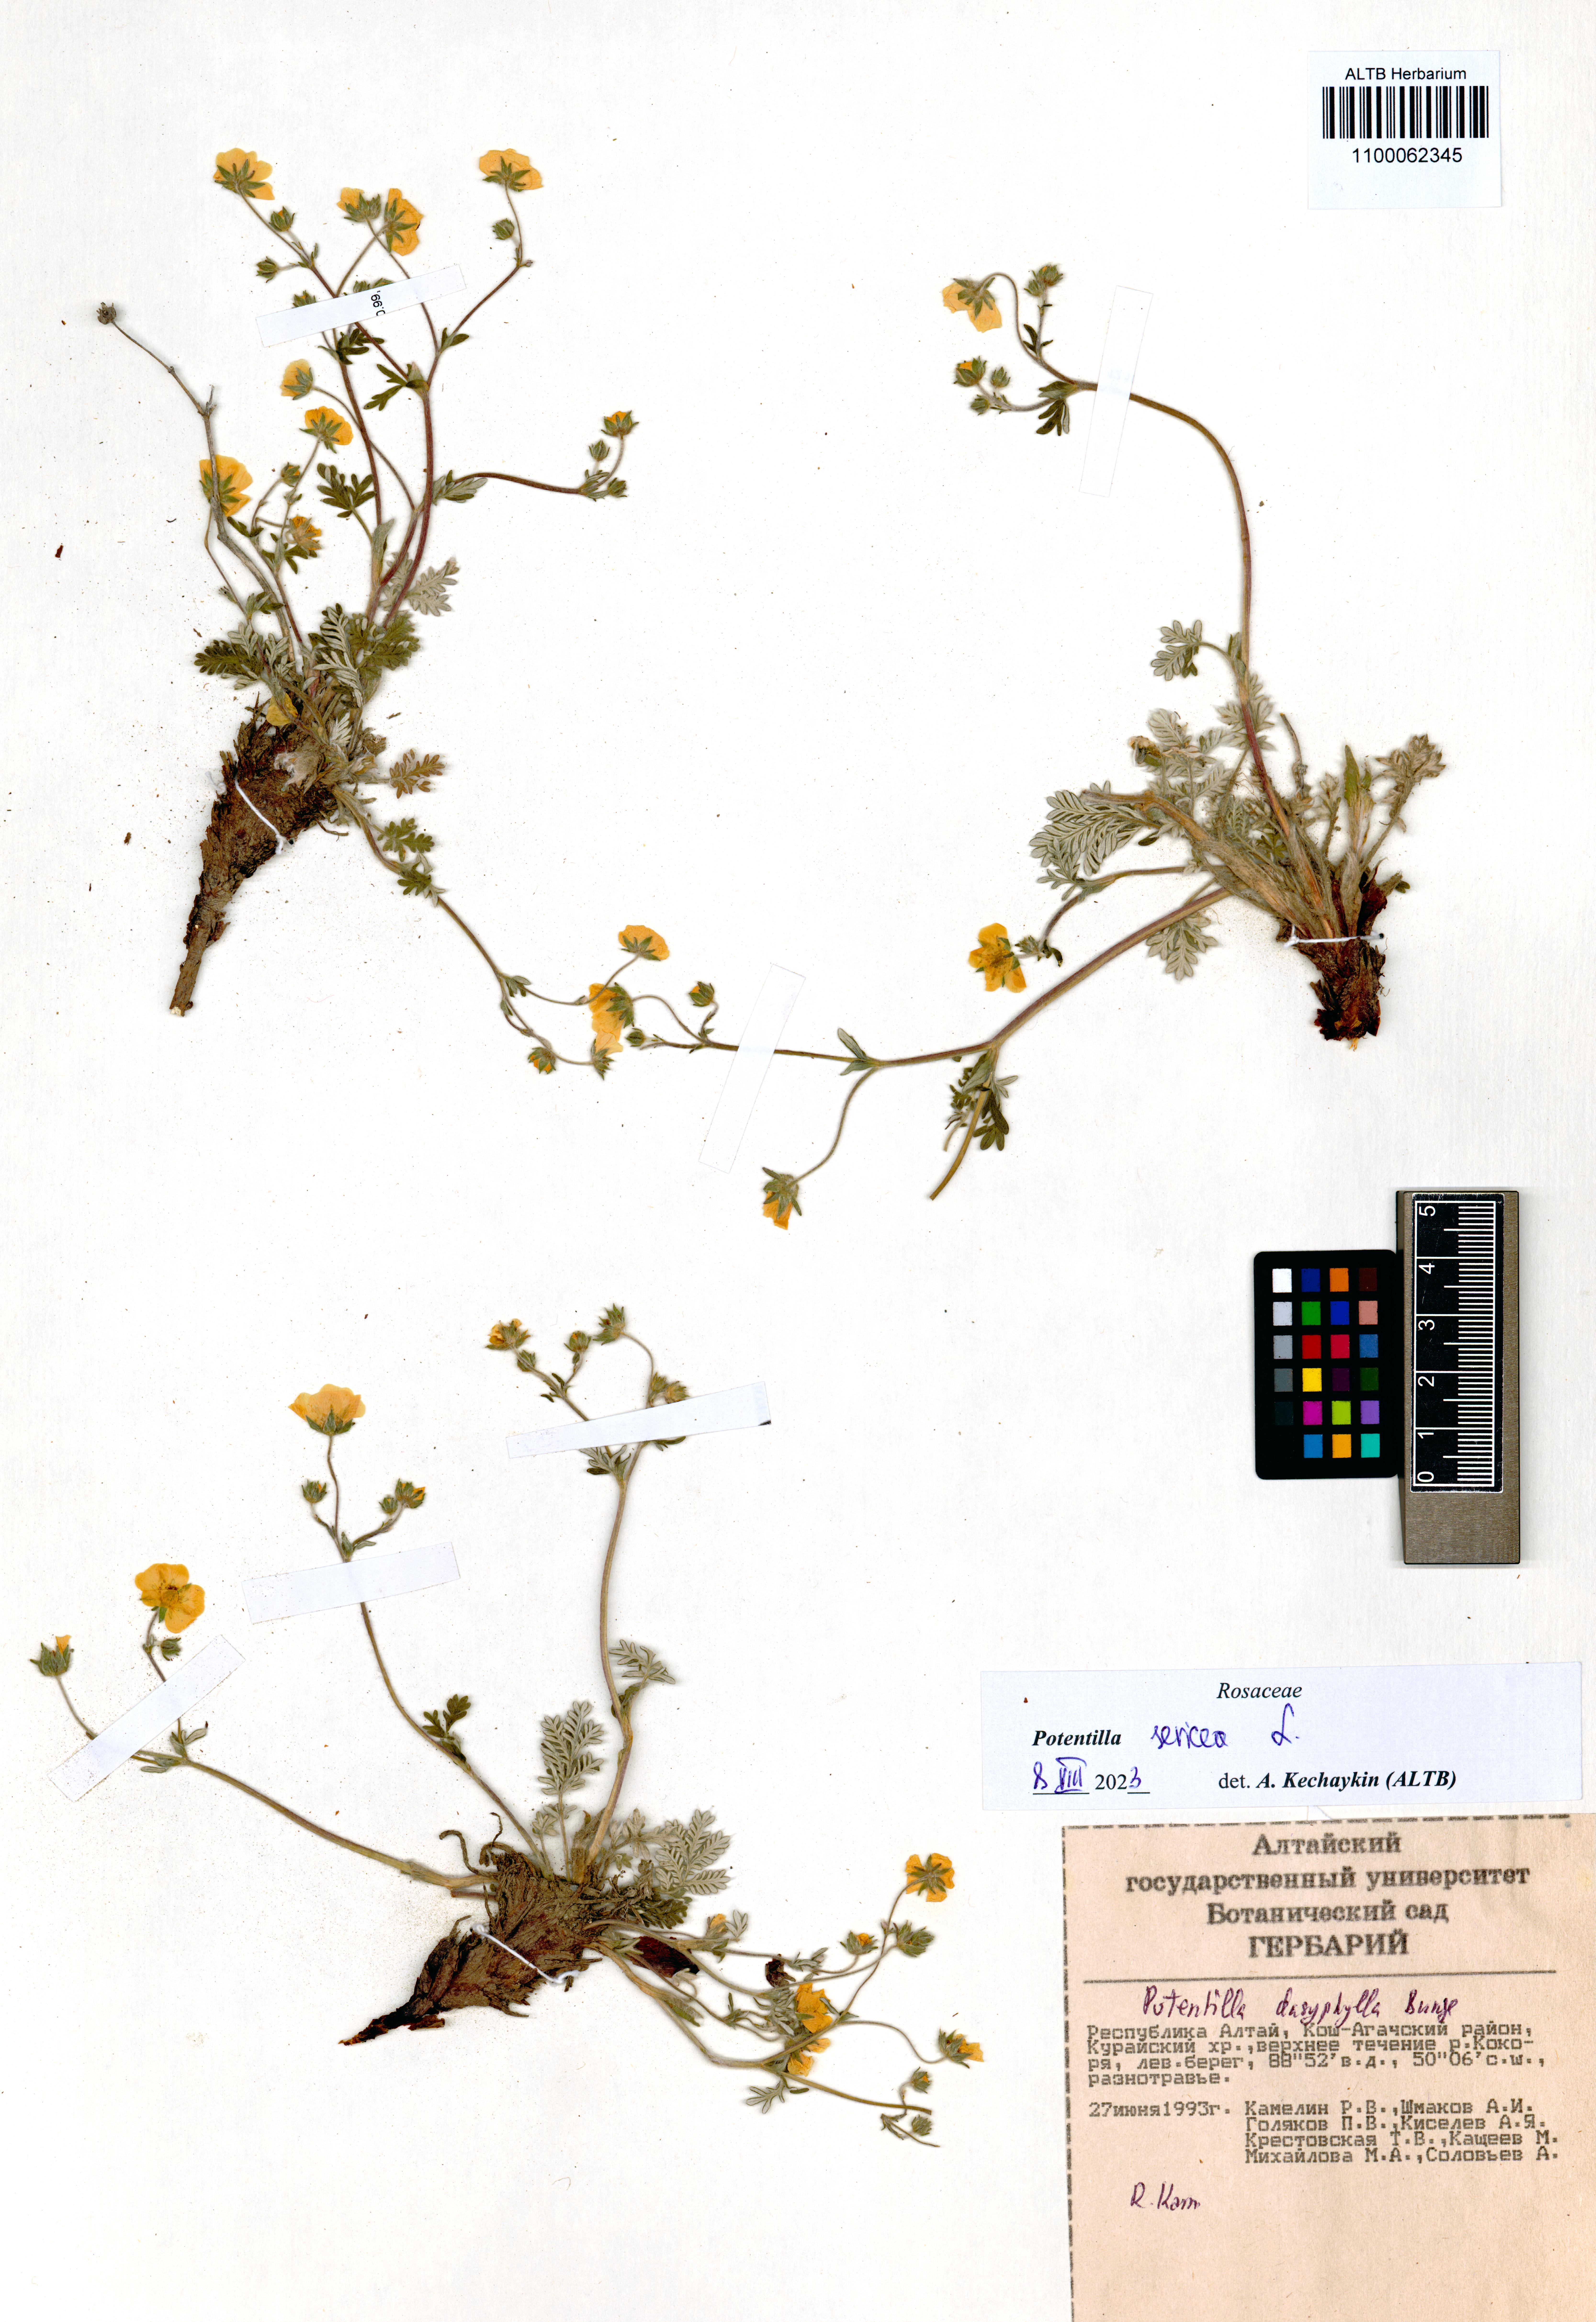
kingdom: Plantae
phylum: Tracheophyta
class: Magnoliopsida
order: Rosales
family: Rosaceae
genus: Potentilla
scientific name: Potentilla sericea
